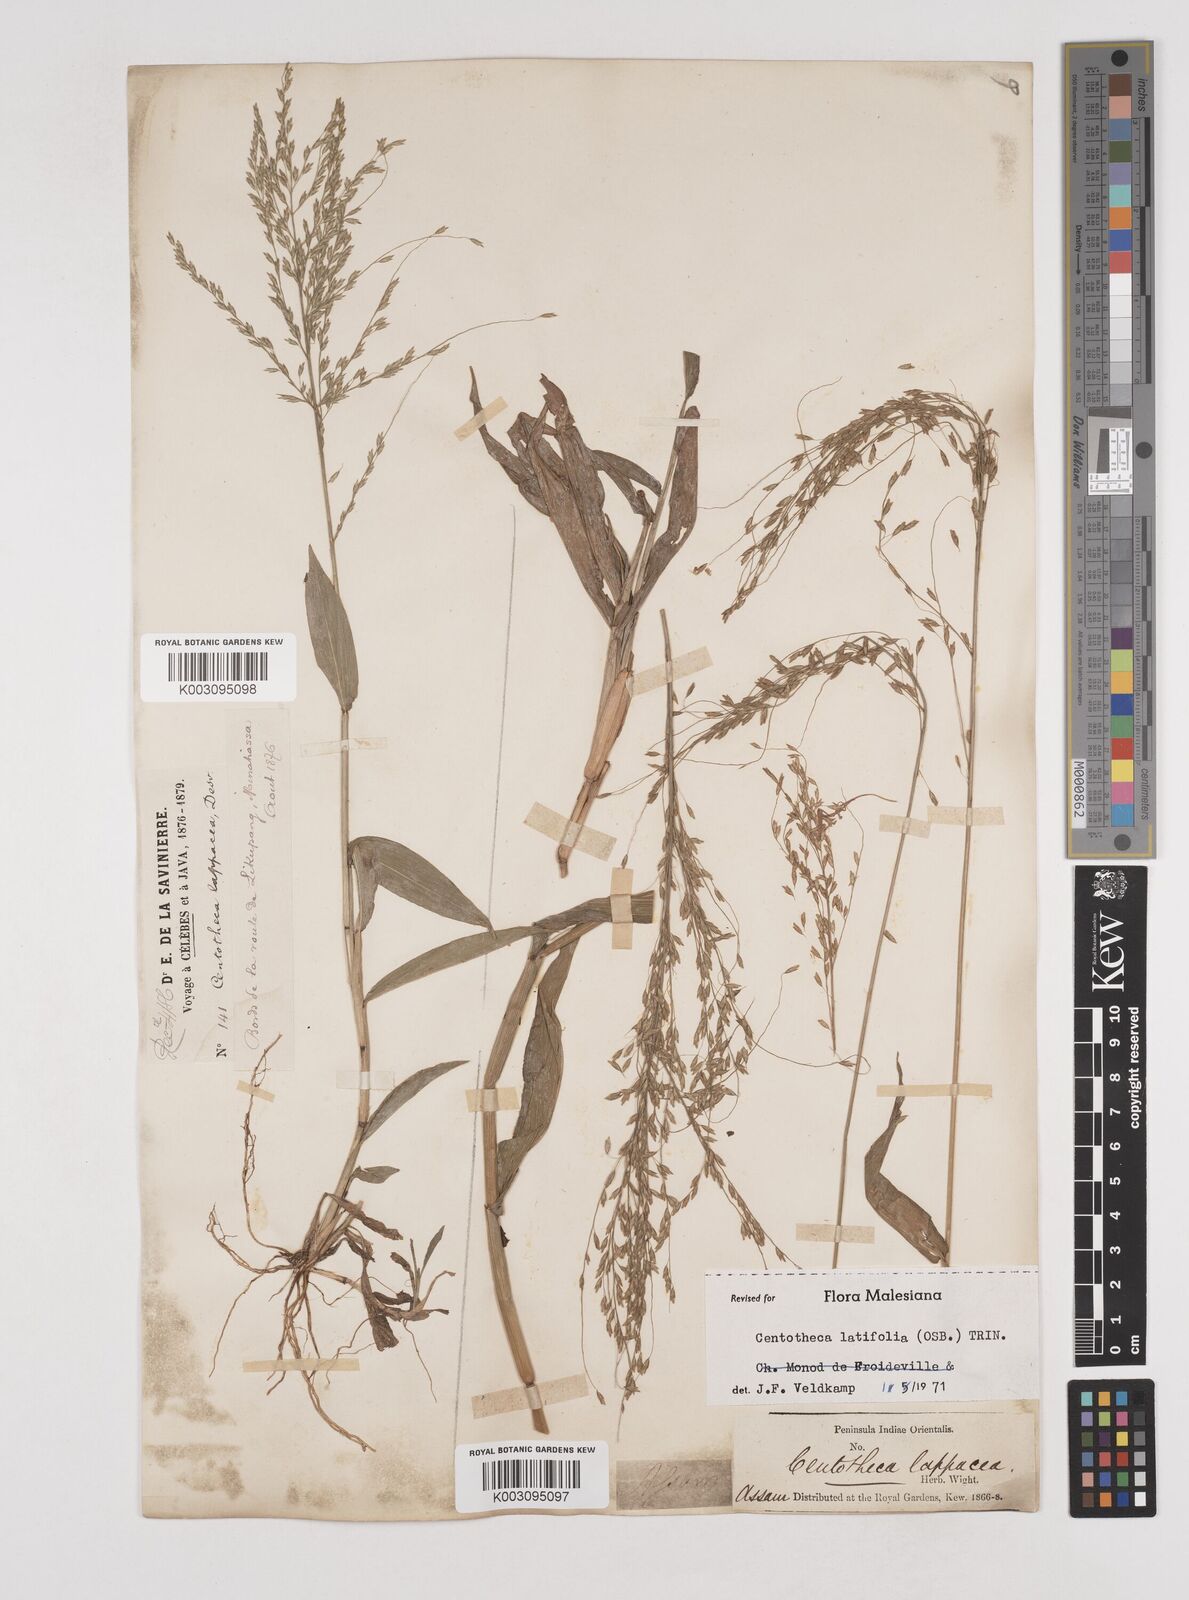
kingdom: Plantae
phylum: Tracheophyta
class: Liliopsida
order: Poales
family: Poaceae
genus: Centotheca
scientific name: Centotheca lappacea
